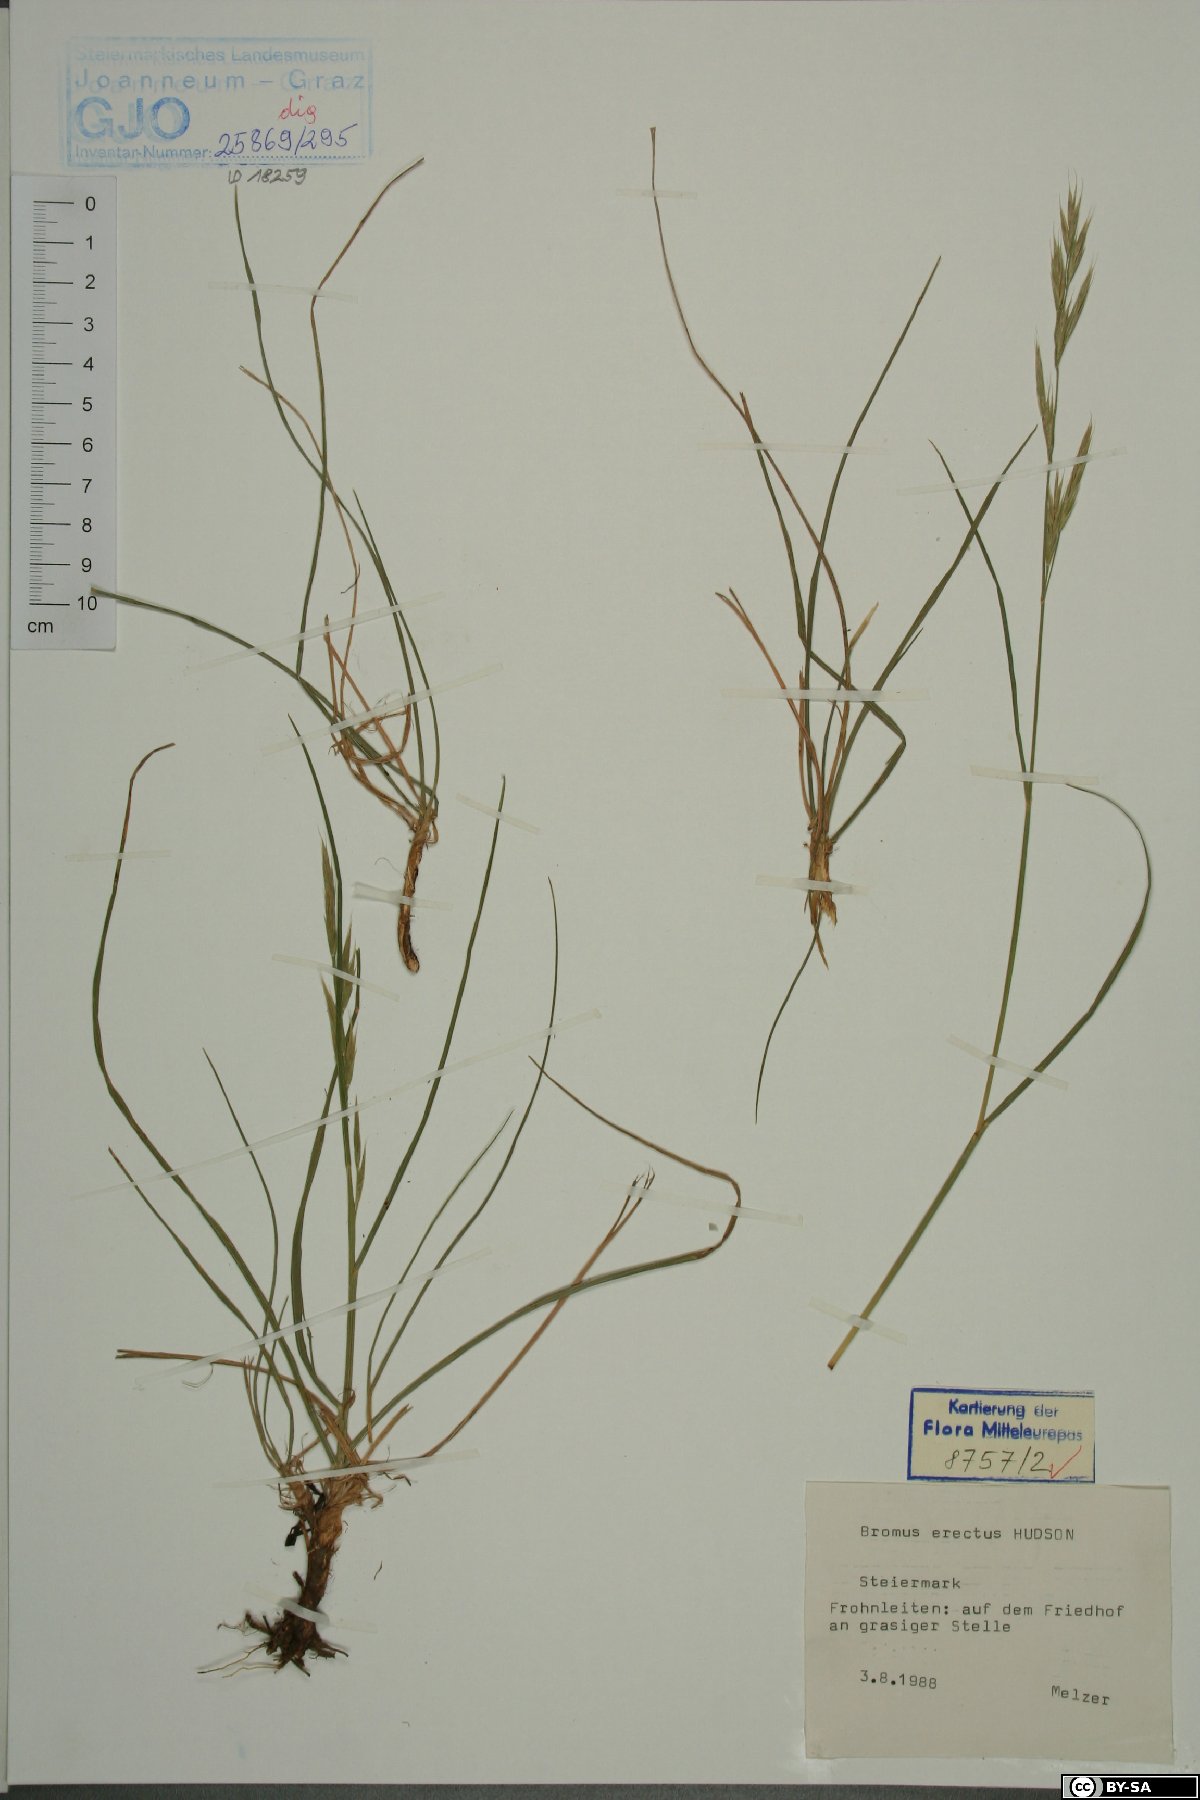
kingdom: Plantae
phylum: Tracheophyta
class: Liliopsida
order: Poales
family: Poaceae
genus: Bromus
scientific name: Bromus erectus
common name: Erect brome
